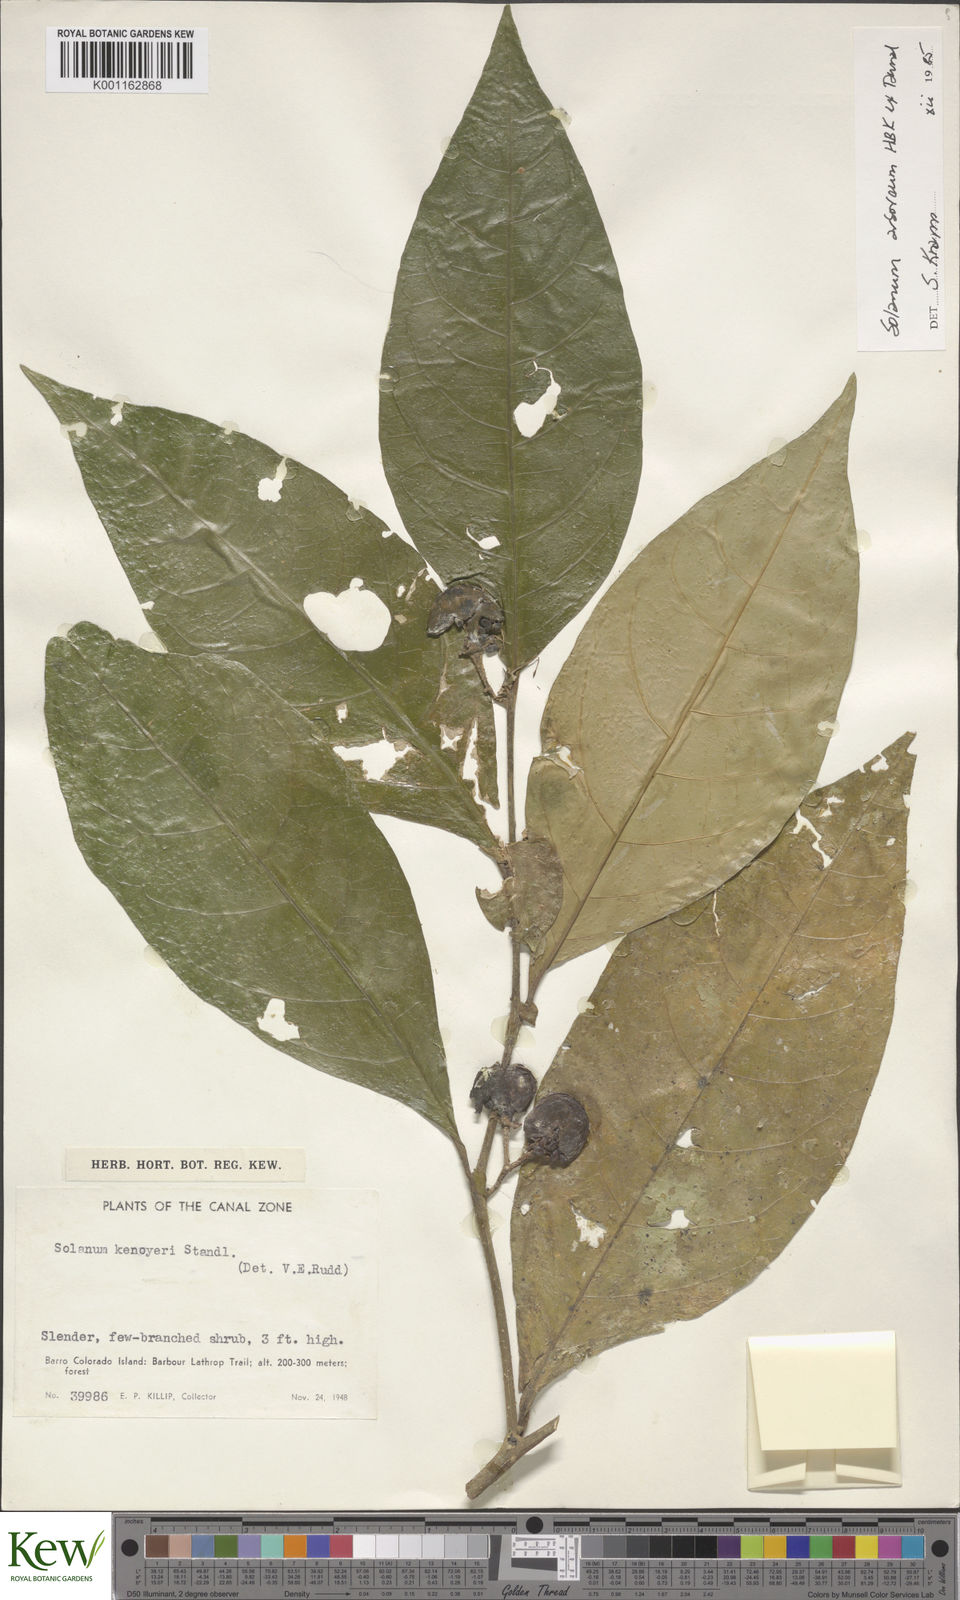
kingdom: Plantae
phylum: Tracheophyta
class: Magnoliopsida
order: Solanales
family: Solanaceae
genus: Solanum
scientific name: Solanum arboreum
